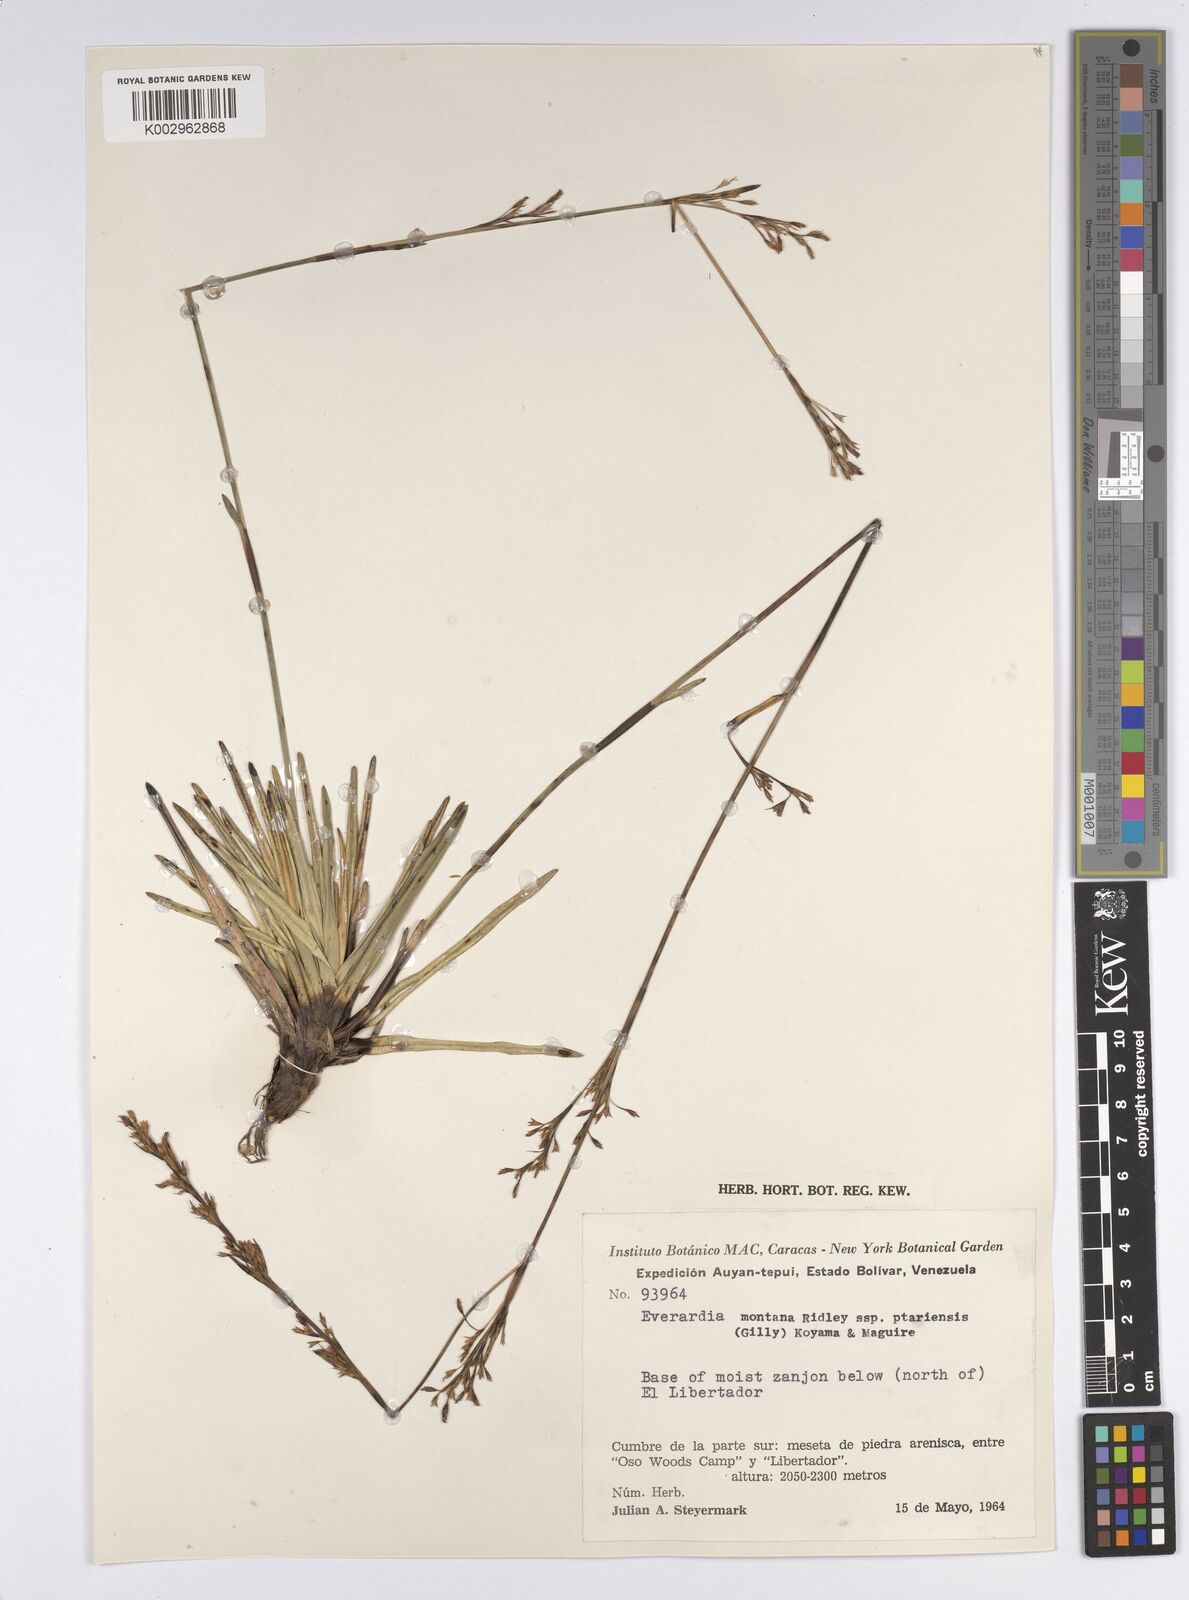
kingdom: Plantae
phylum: Tracheophyta
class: Liliopsida
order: Poales
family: Cyperaceae
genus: Cephalocarpus
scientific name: Cephalocarpus ptariensis
